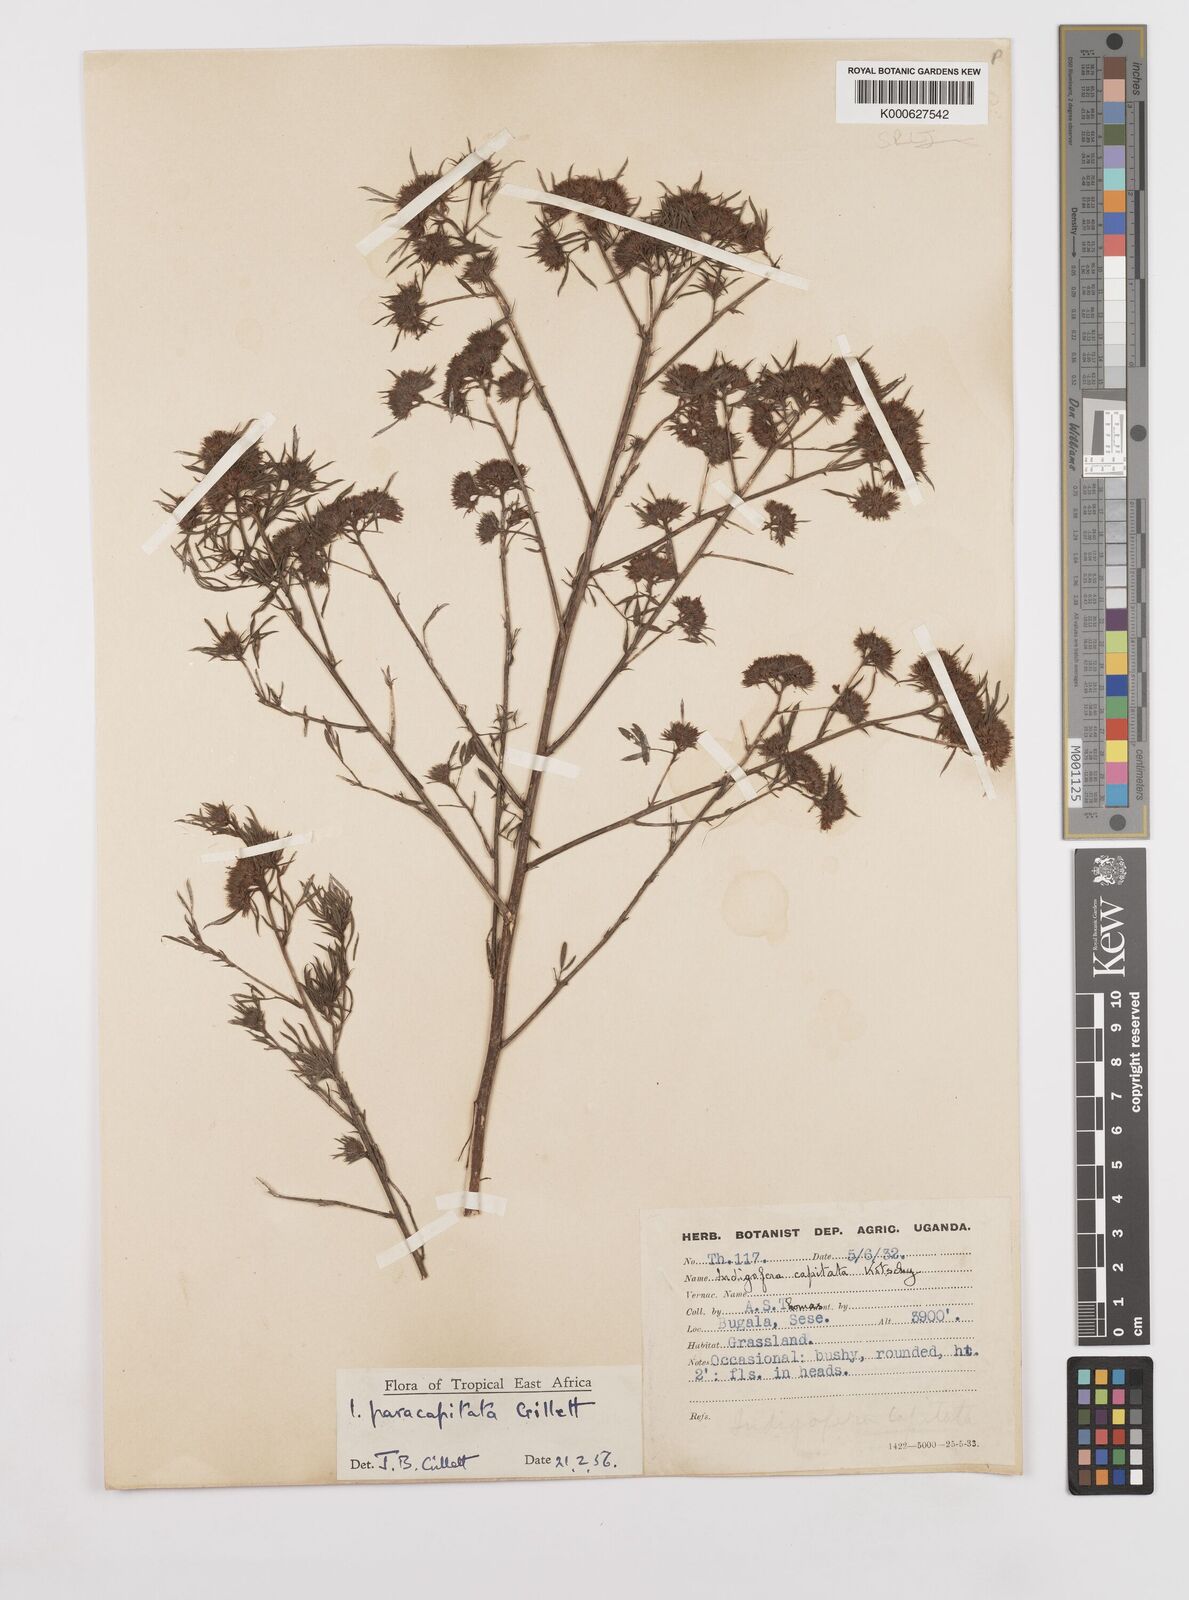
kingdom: Plantae
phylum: Tracheophyta
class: Magnoliopsida
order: Fabales
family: Fabaceae
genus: Indigofera
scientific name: Indigofera paracapitata
